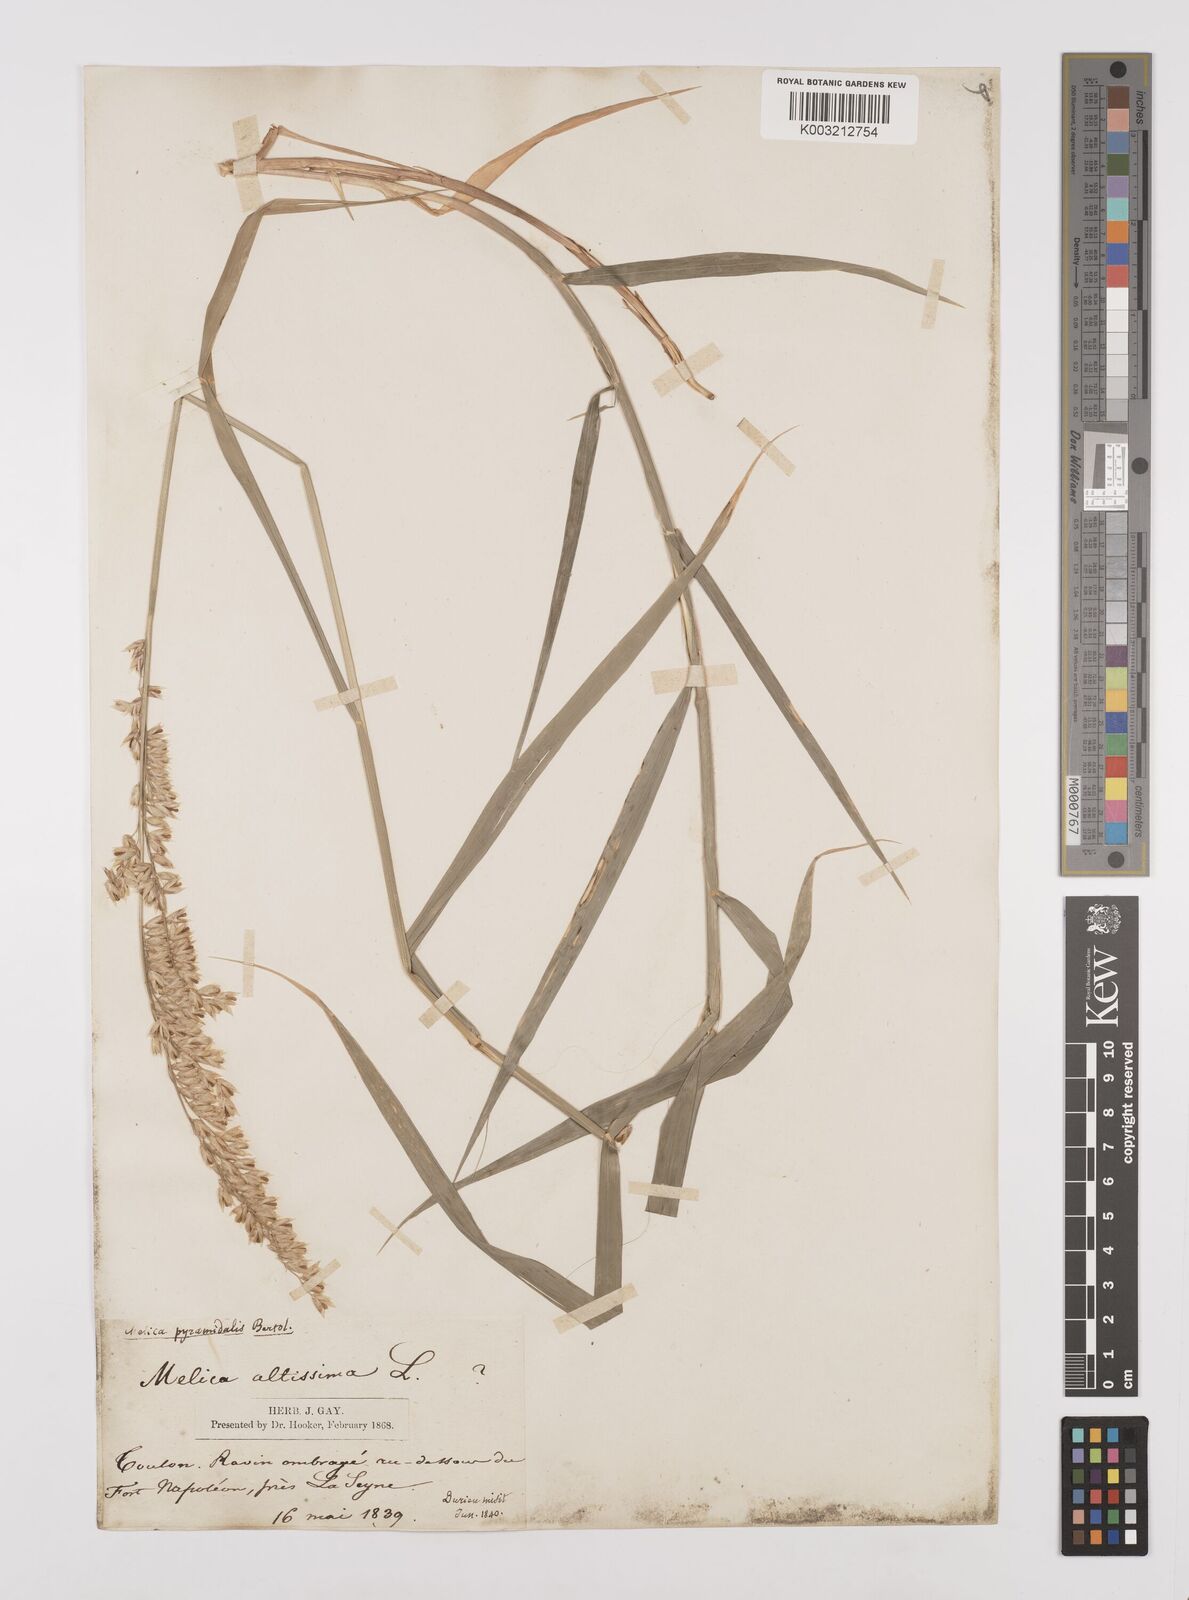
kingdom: Plantae
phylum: Tracheophyta
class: Liliopsida
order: Poales
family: Poaceae
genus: Melica
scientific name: Melica altissima
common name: Siberian melicgrass
